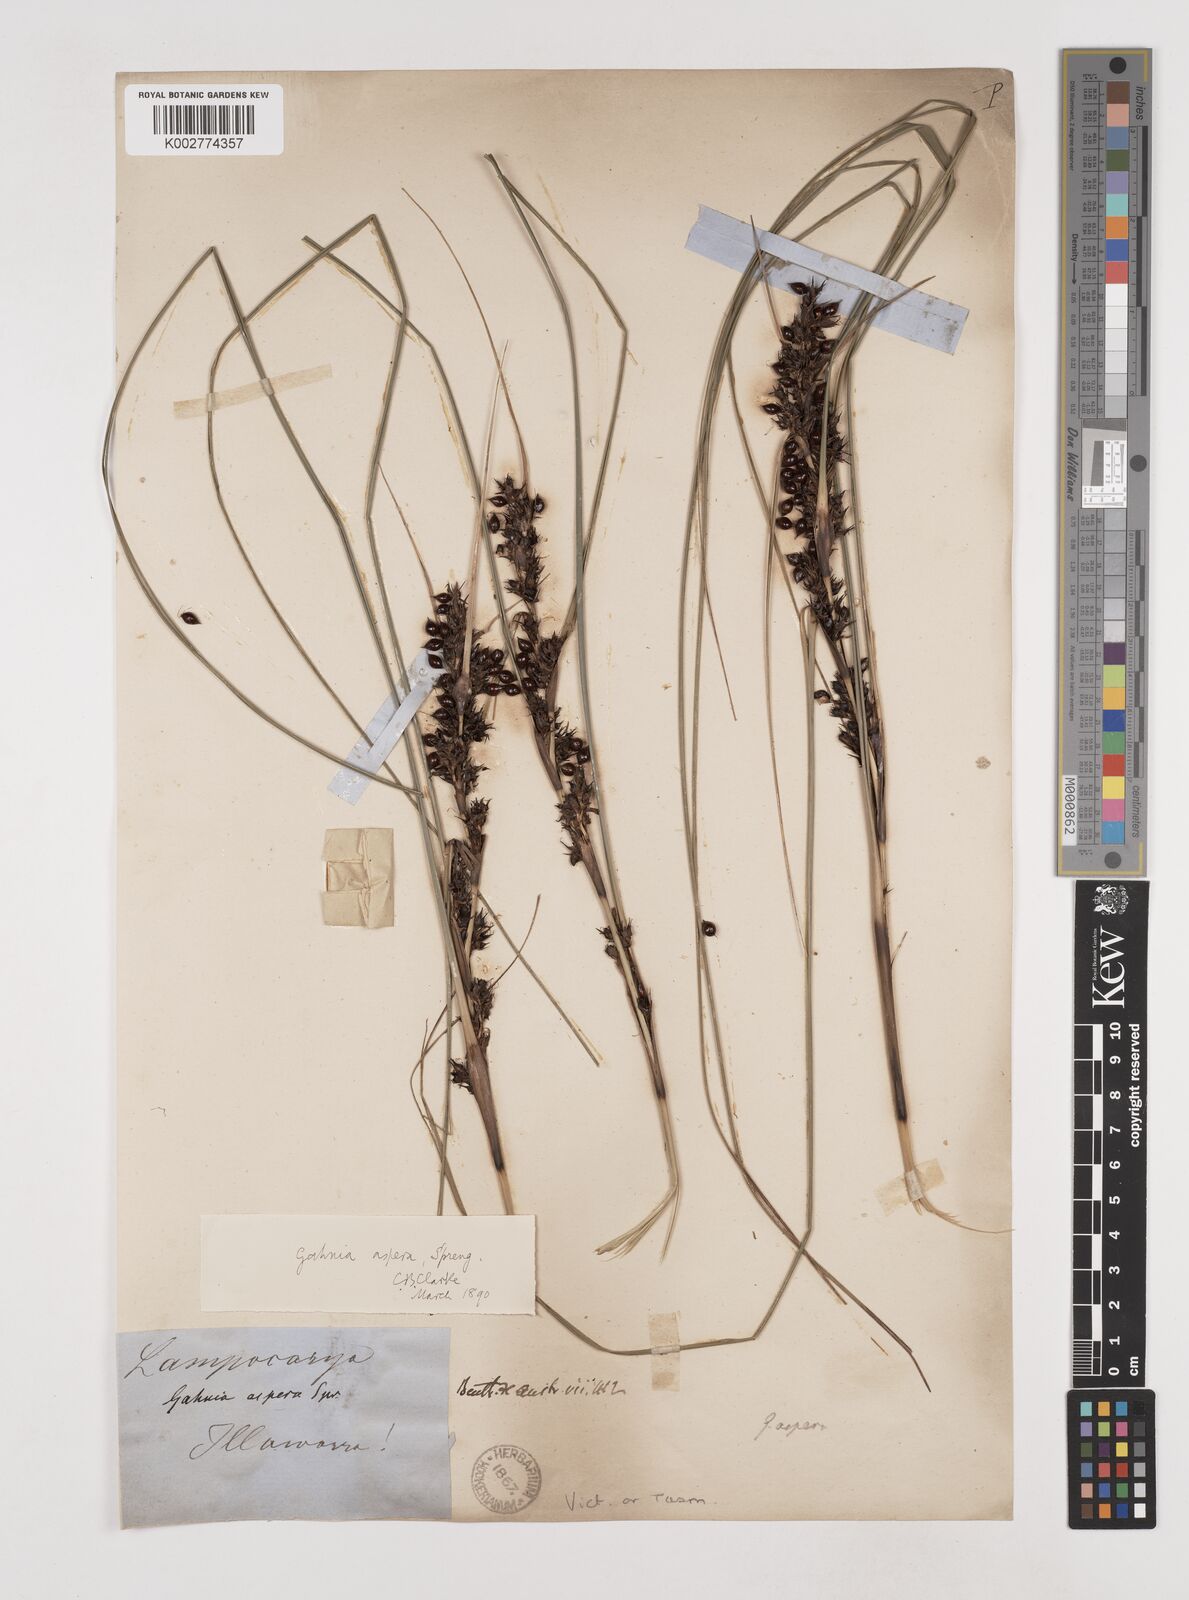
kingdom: Plantae
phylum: Tracheophyta
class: Liliopsida
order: Poales
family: Cyperaceae
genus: Gahnia
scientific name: Gahnia aspera
